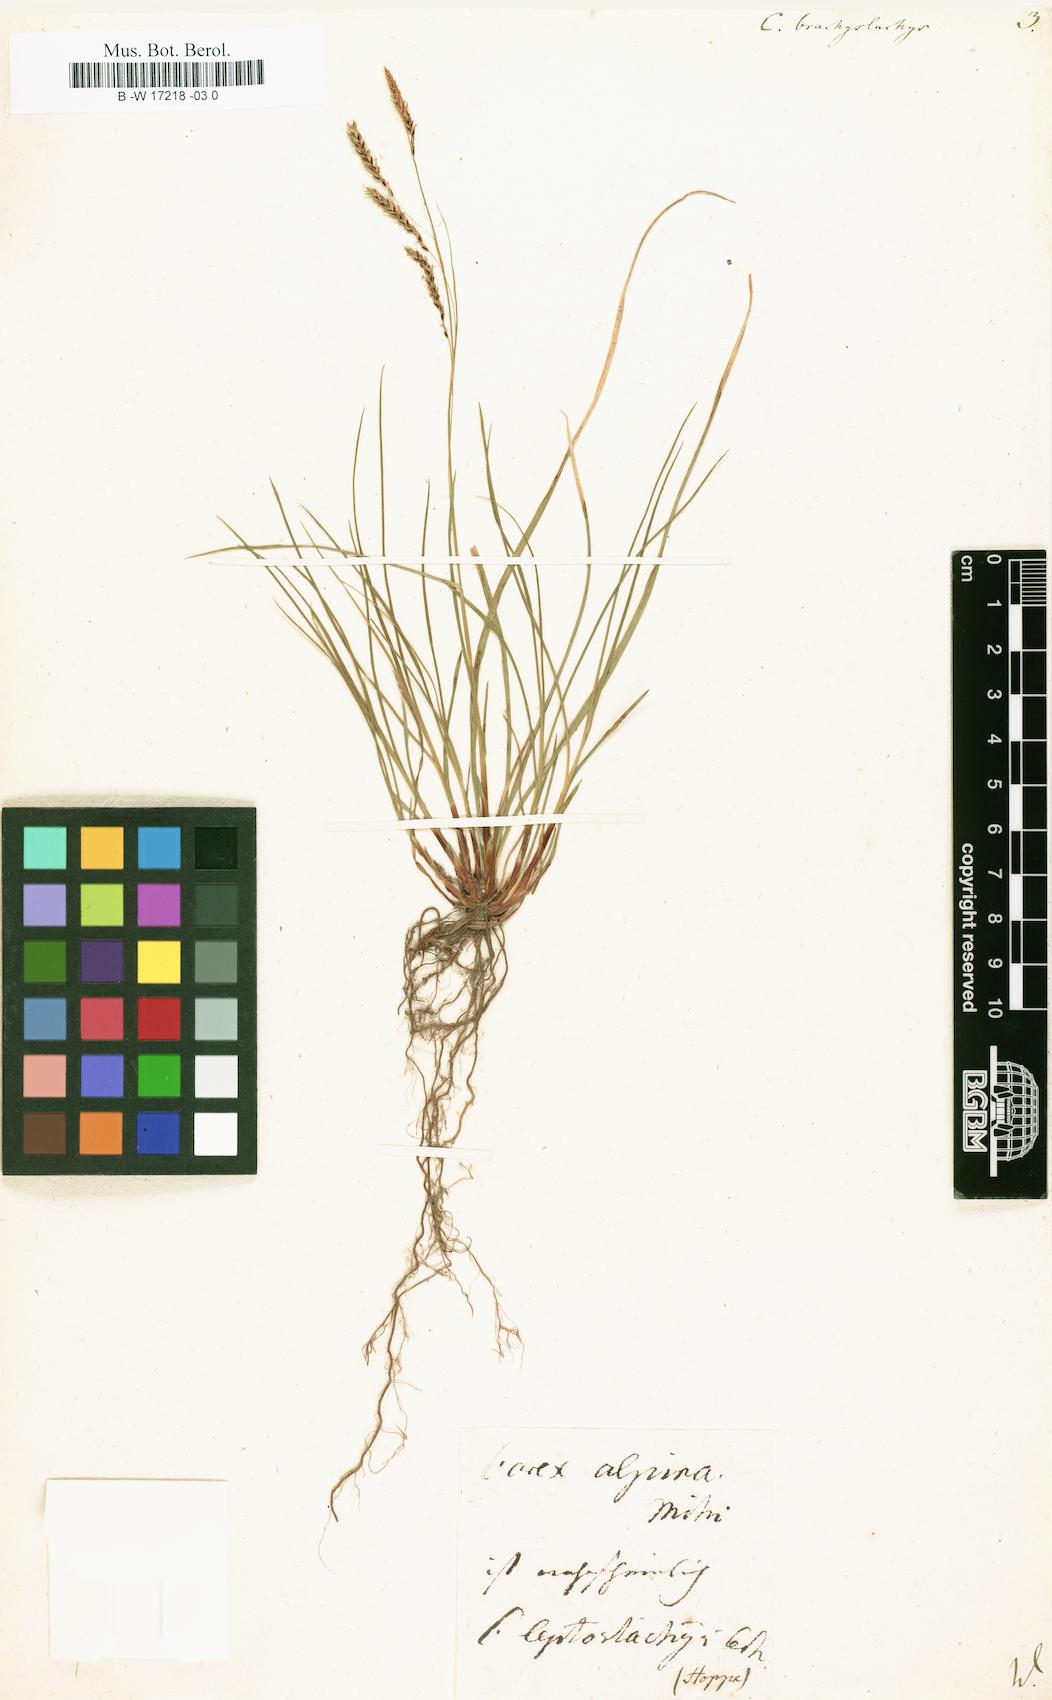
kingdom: Plantae
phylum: Tracheophyta
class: Liliopsida
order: Poales
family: Cyperaceae
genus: Carex
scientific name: Carex brachystachys
